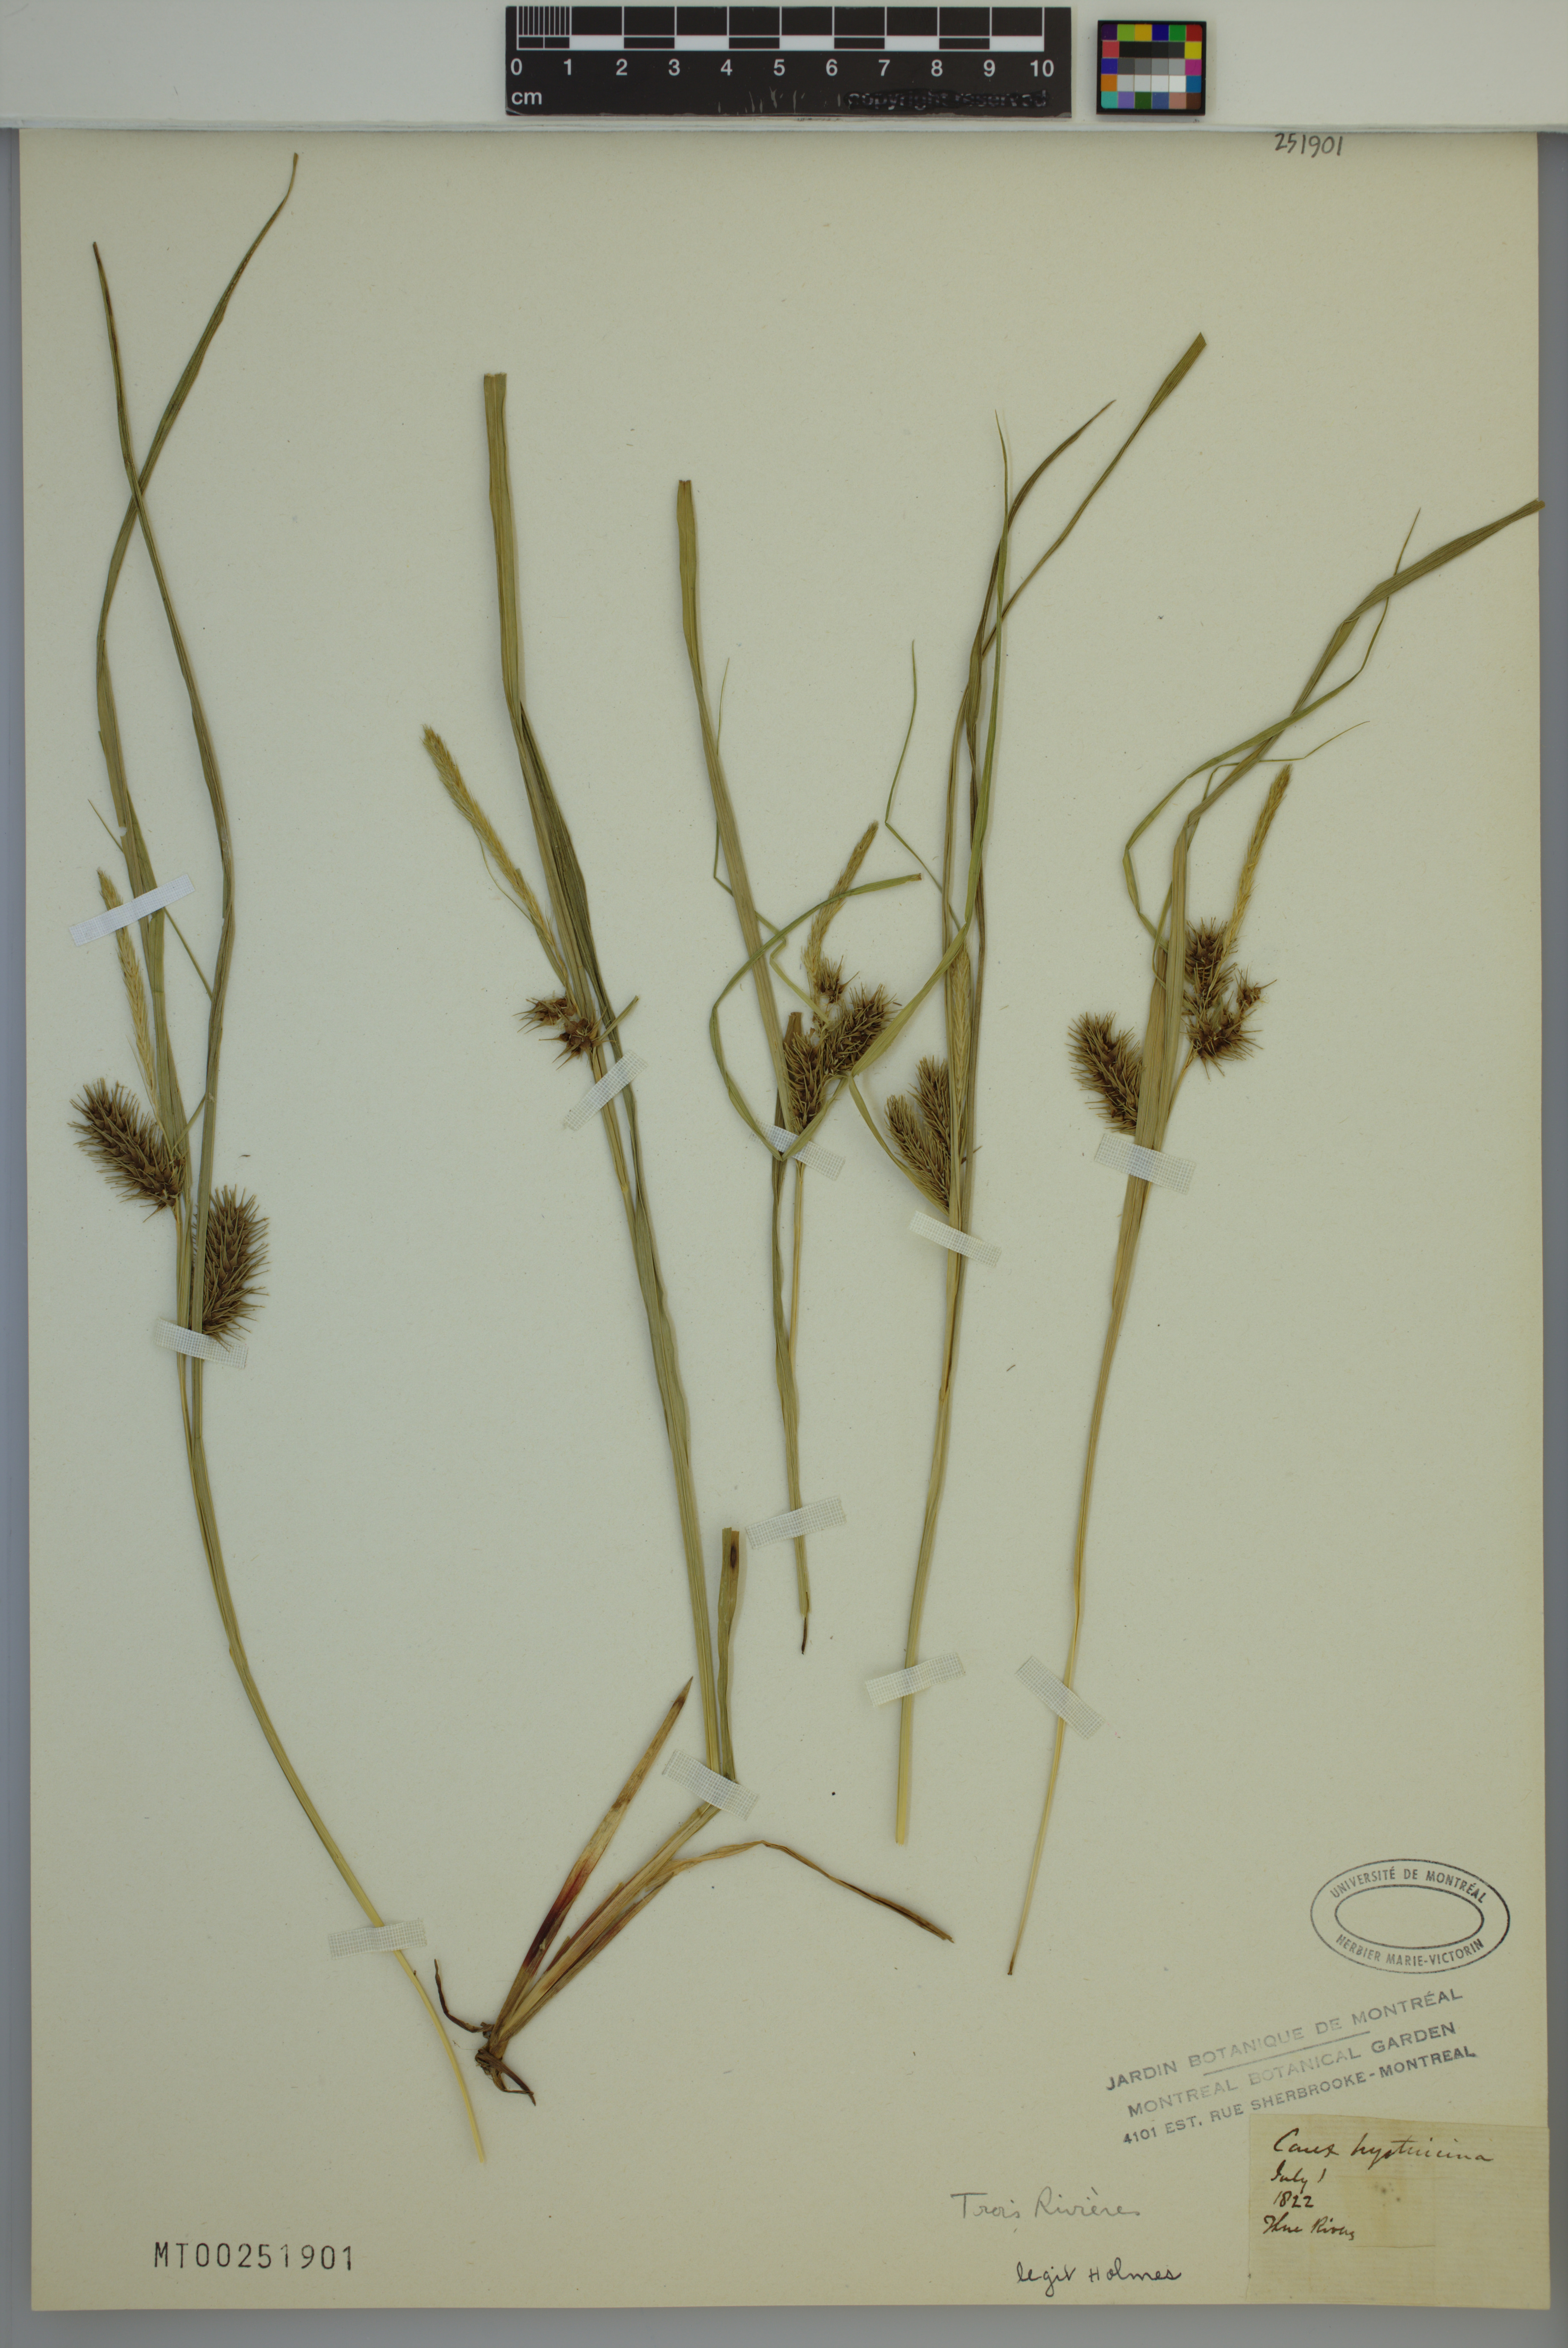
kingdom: Plantae
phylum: Tracheophyta
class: Liliopsida
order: Poales
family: Cyperaceae
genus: Carex
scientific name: Carex hystericina
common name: Bottlebrush sedge
